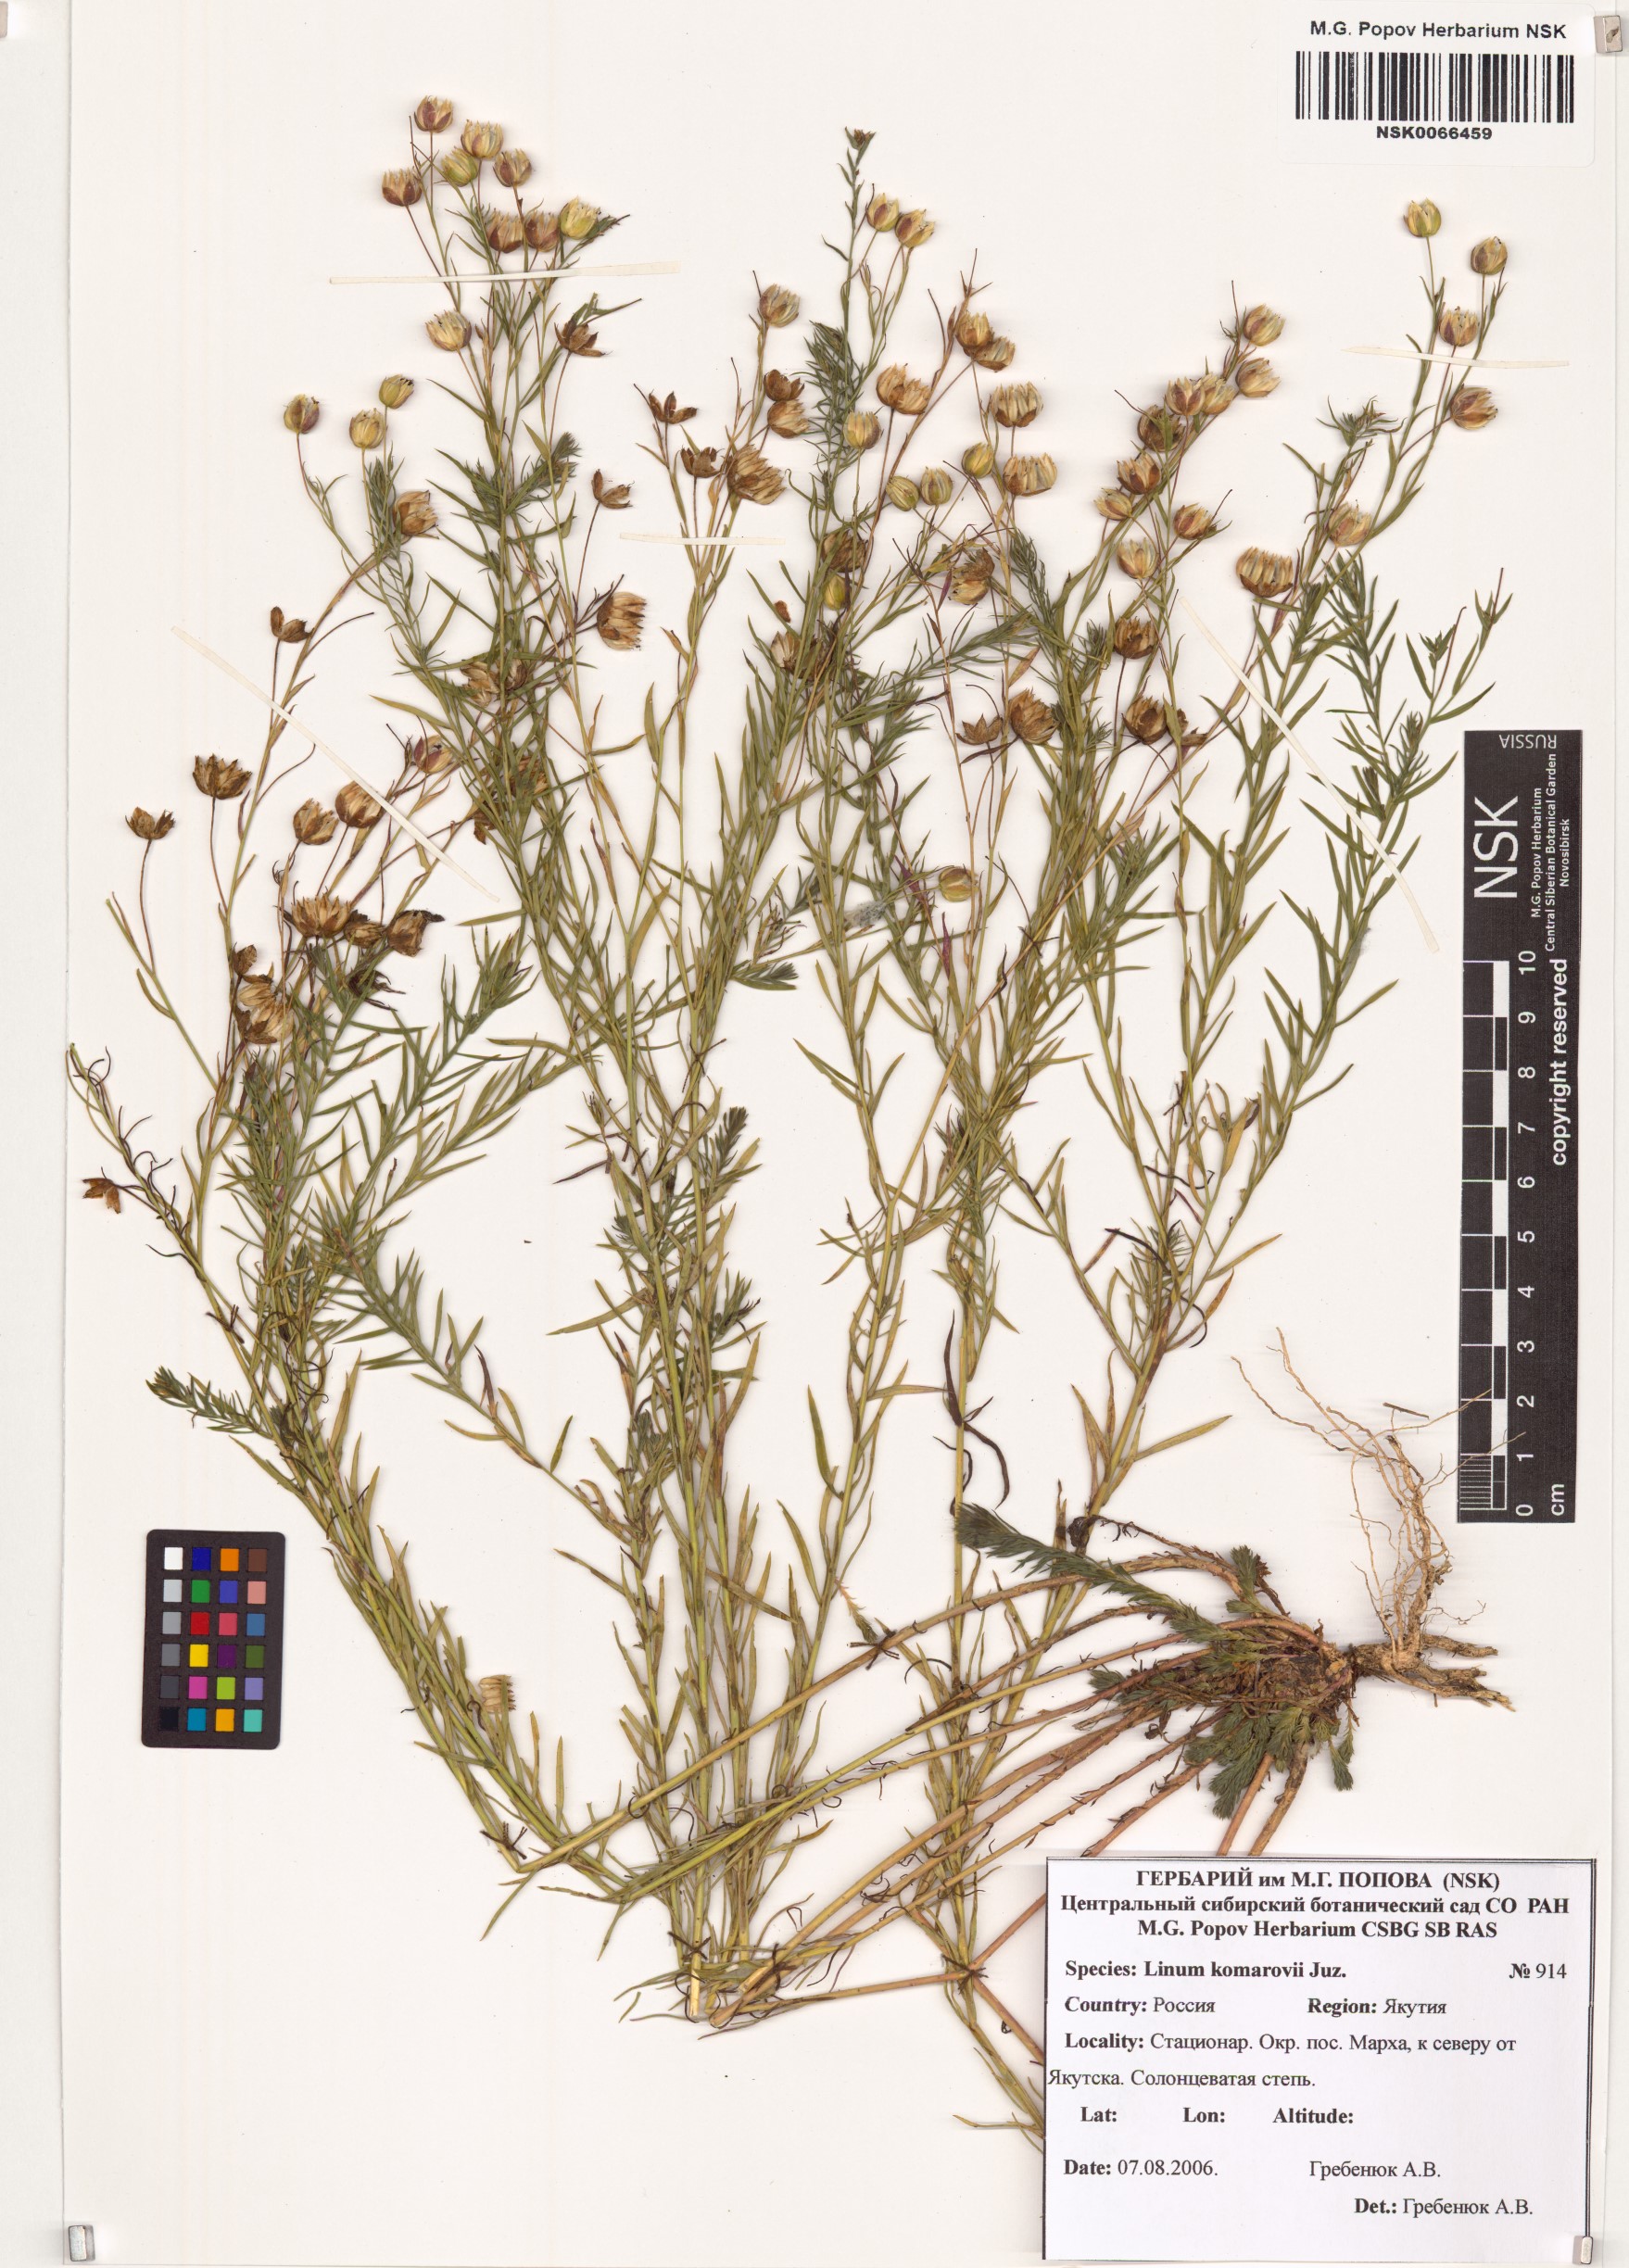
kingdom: Plantae
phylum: Tracheophyta
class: Magnoliopsida
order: Malpighiales
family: Linaceae
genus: Linum
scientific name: Linum komarovii
